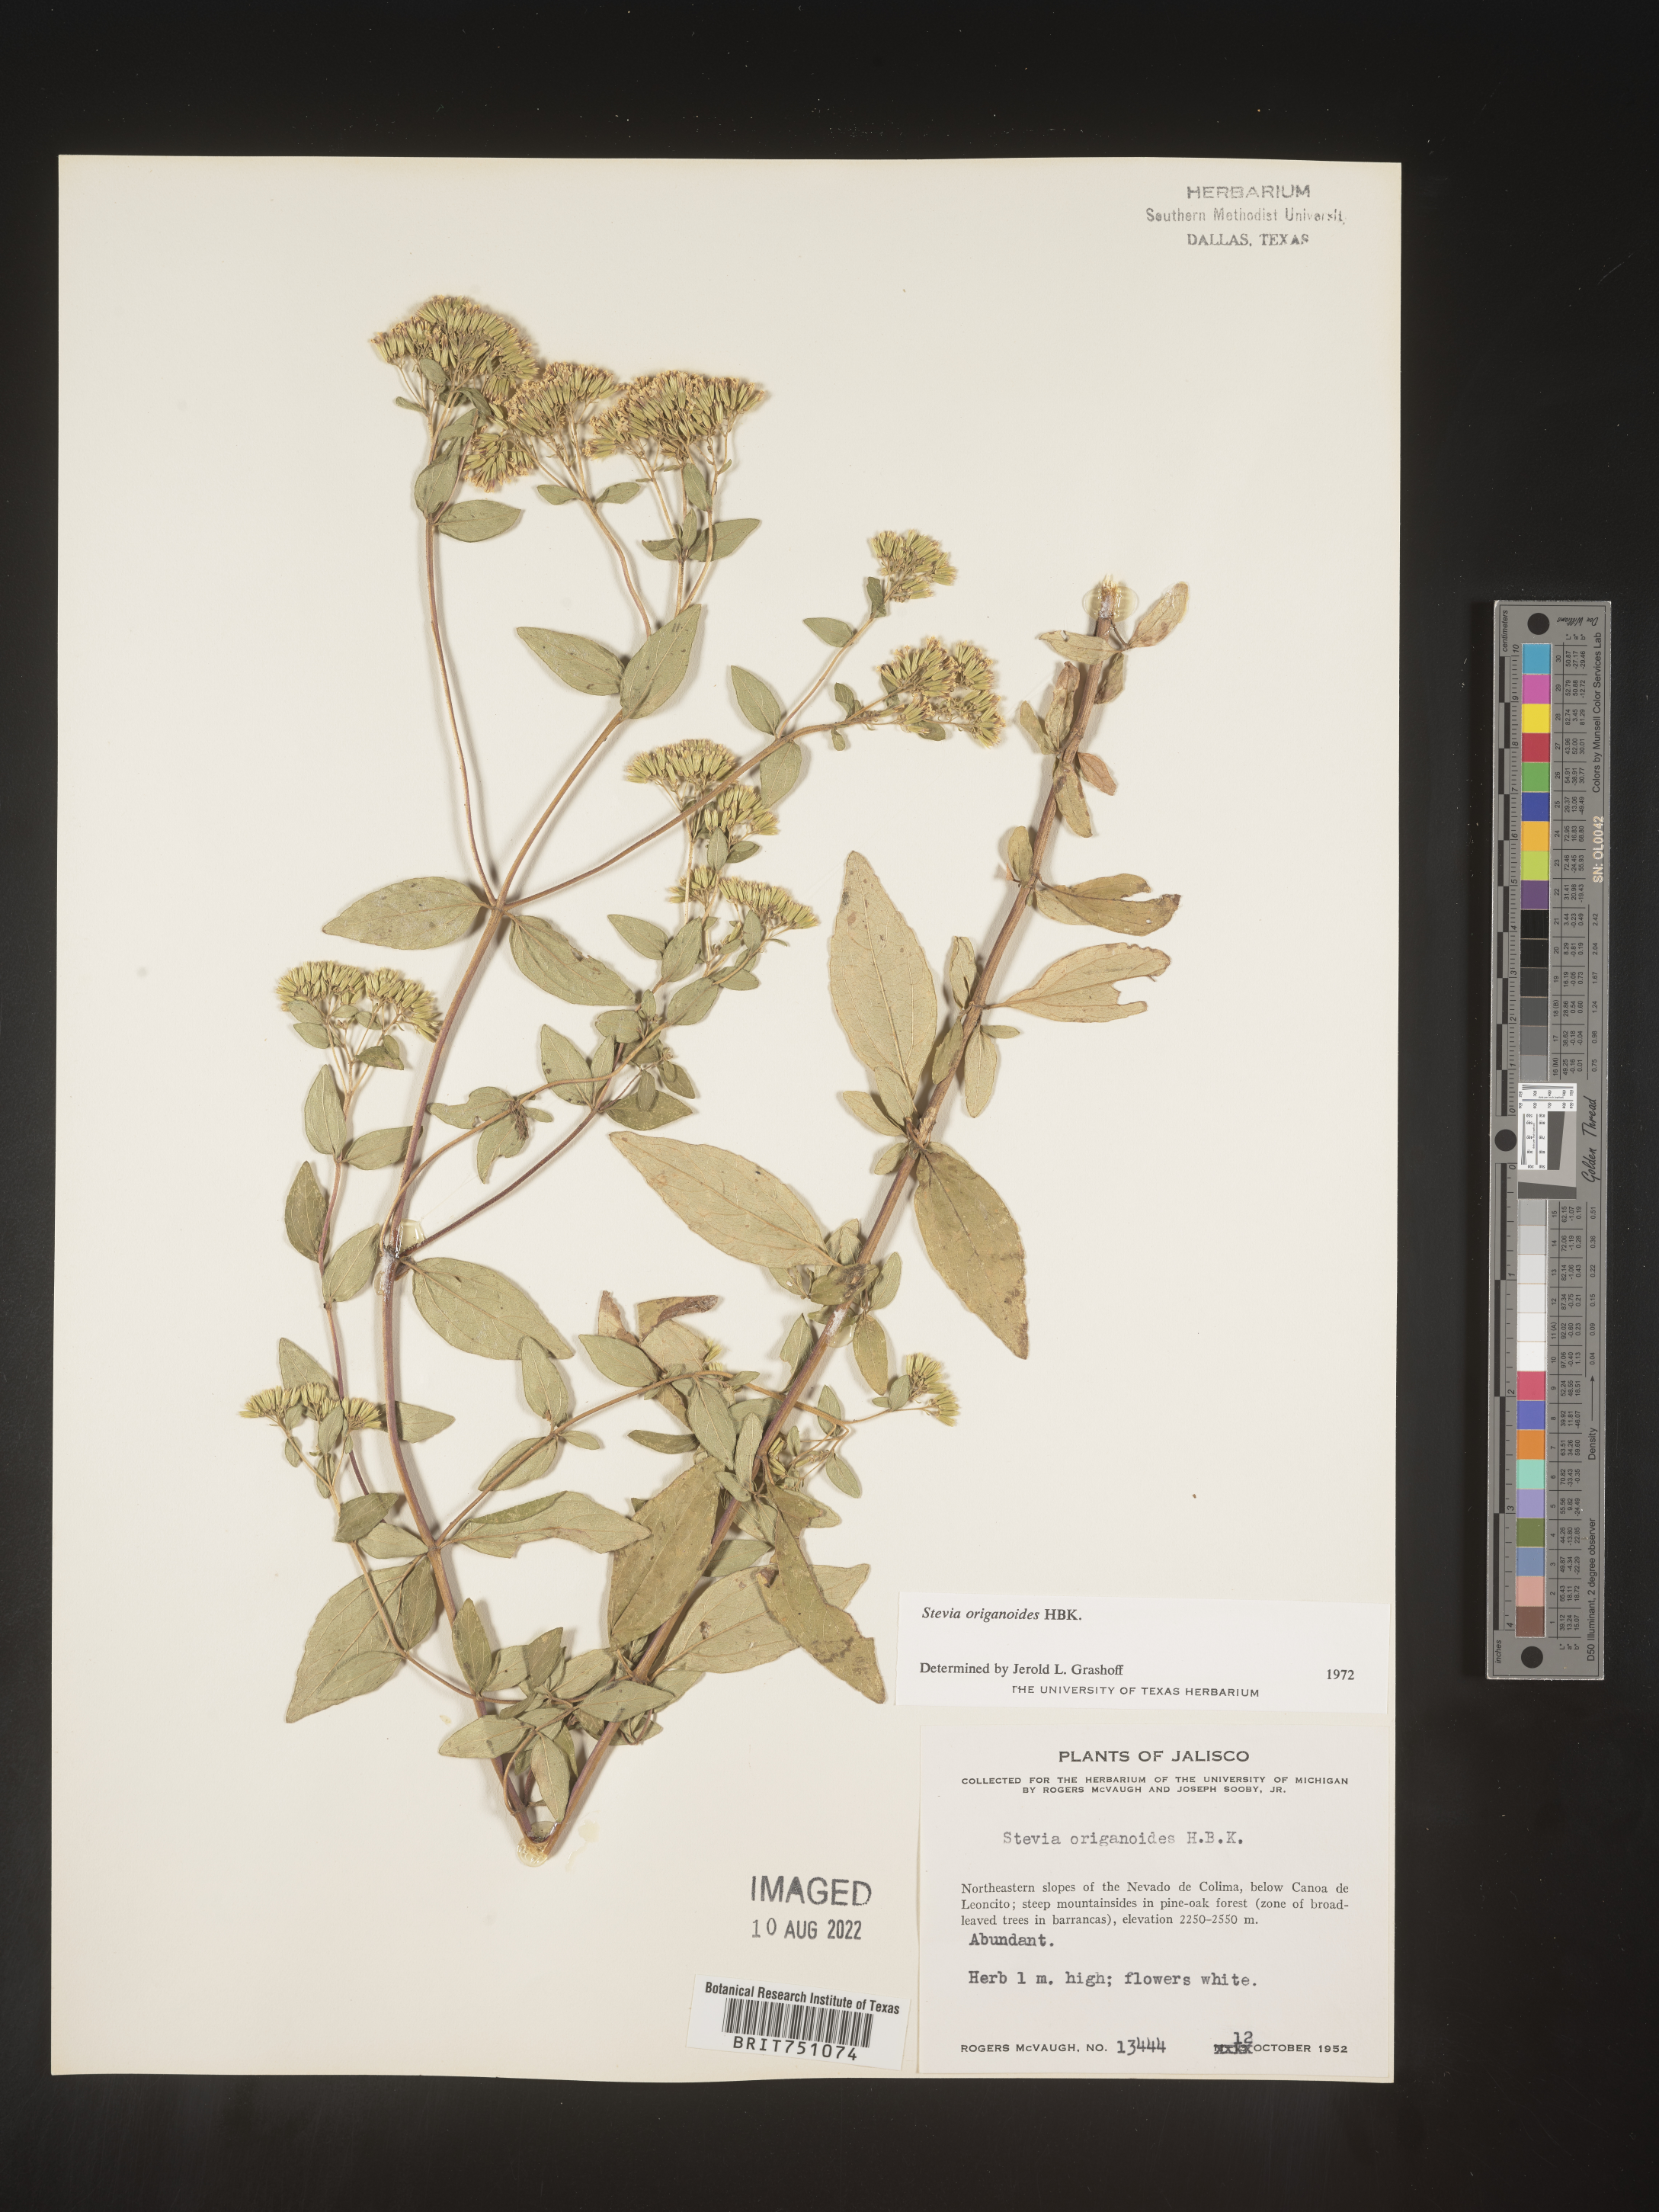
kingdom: Plantae
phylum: Tracheophyta
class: Magnoliopsida
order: Asterales
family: Asteraceae
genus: Stevia
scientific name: Stevia origanoides
